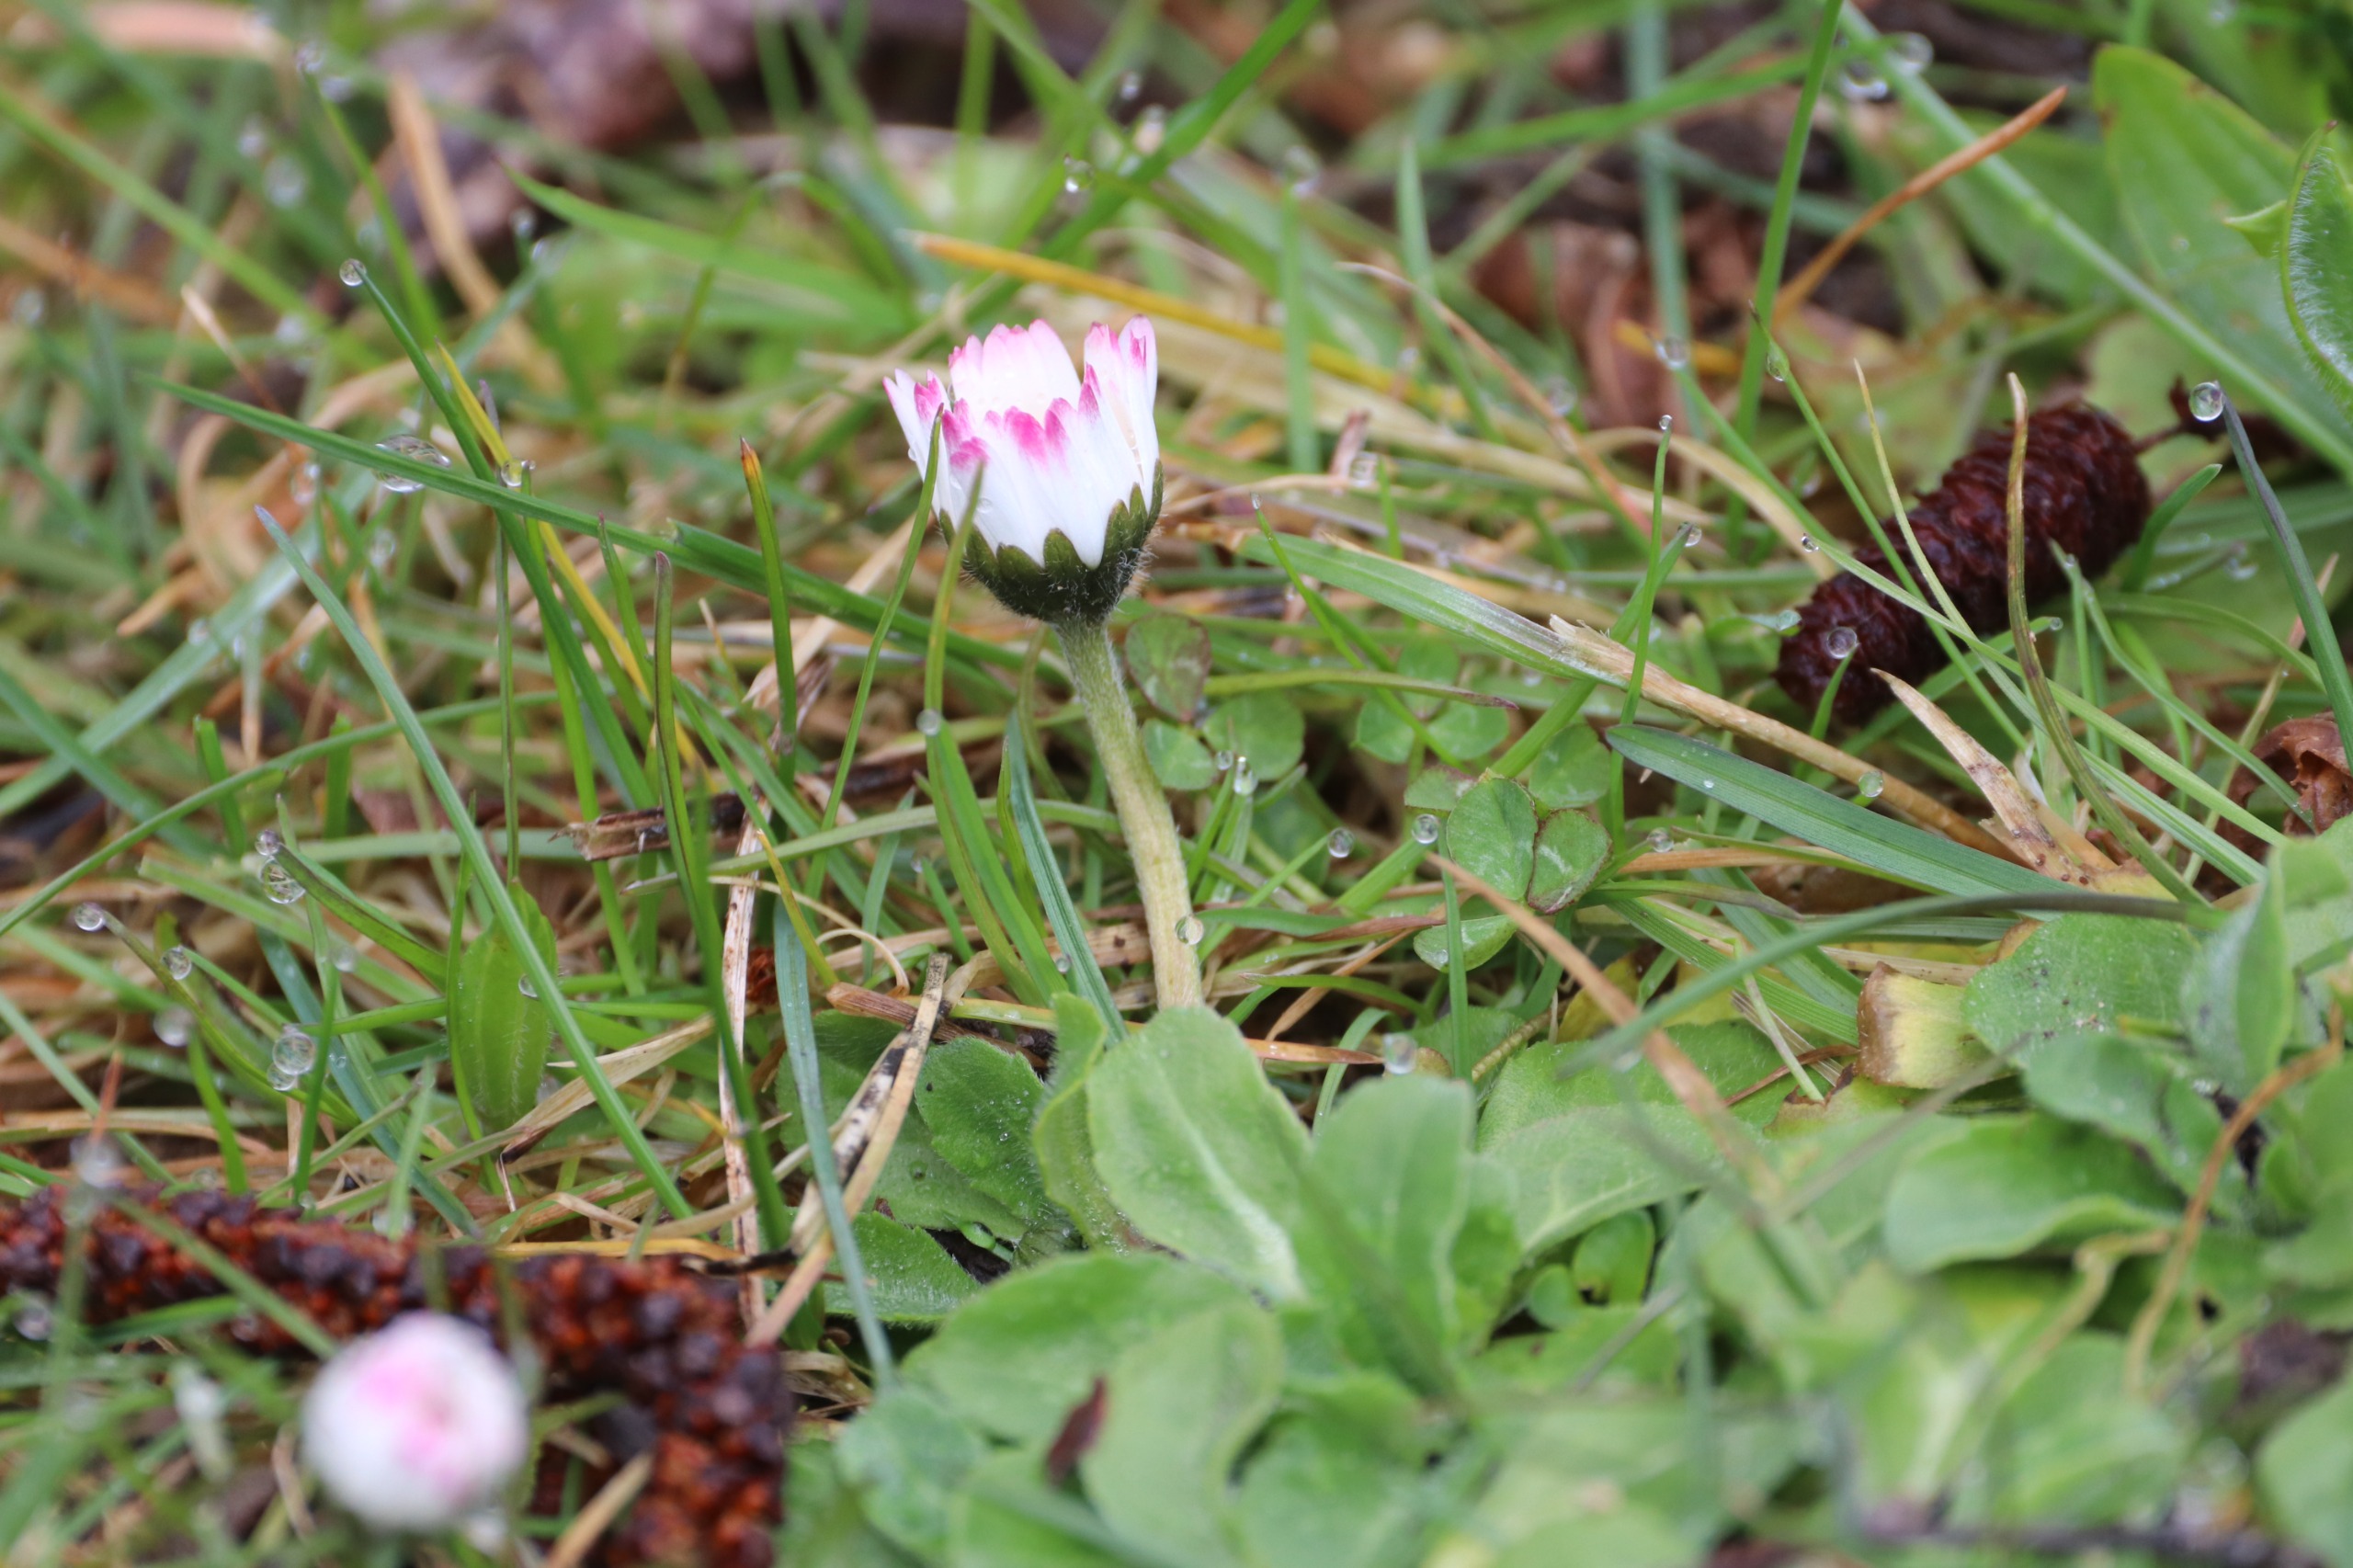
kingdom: Plantae
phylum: Tracheophyta
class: Magnoliopsida
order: Asterales
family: Asteraceae
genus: Bellis
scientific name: Bellis perennis
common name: Tusindfryd
